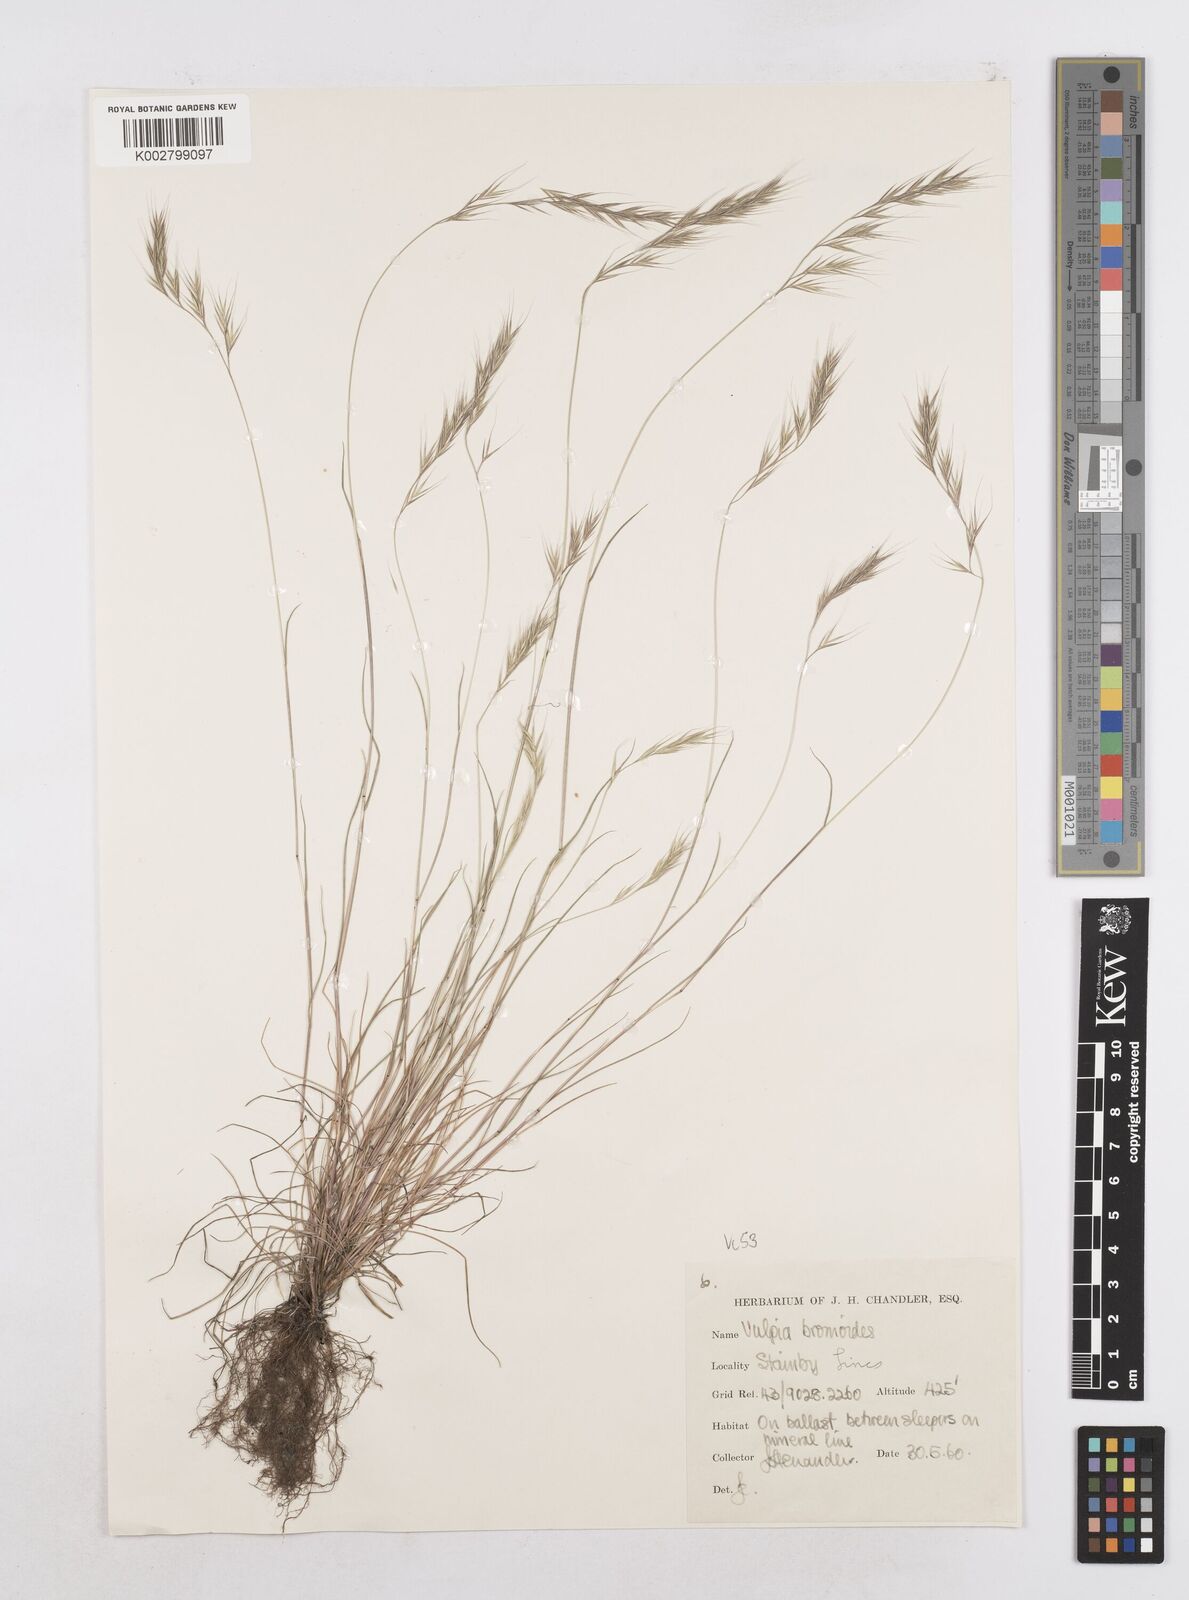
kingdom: Plantae
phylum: Tracheophyta
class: Liliopsida
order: Poales
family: Poaceae
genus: Festuca
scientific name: Festuca bromoides
